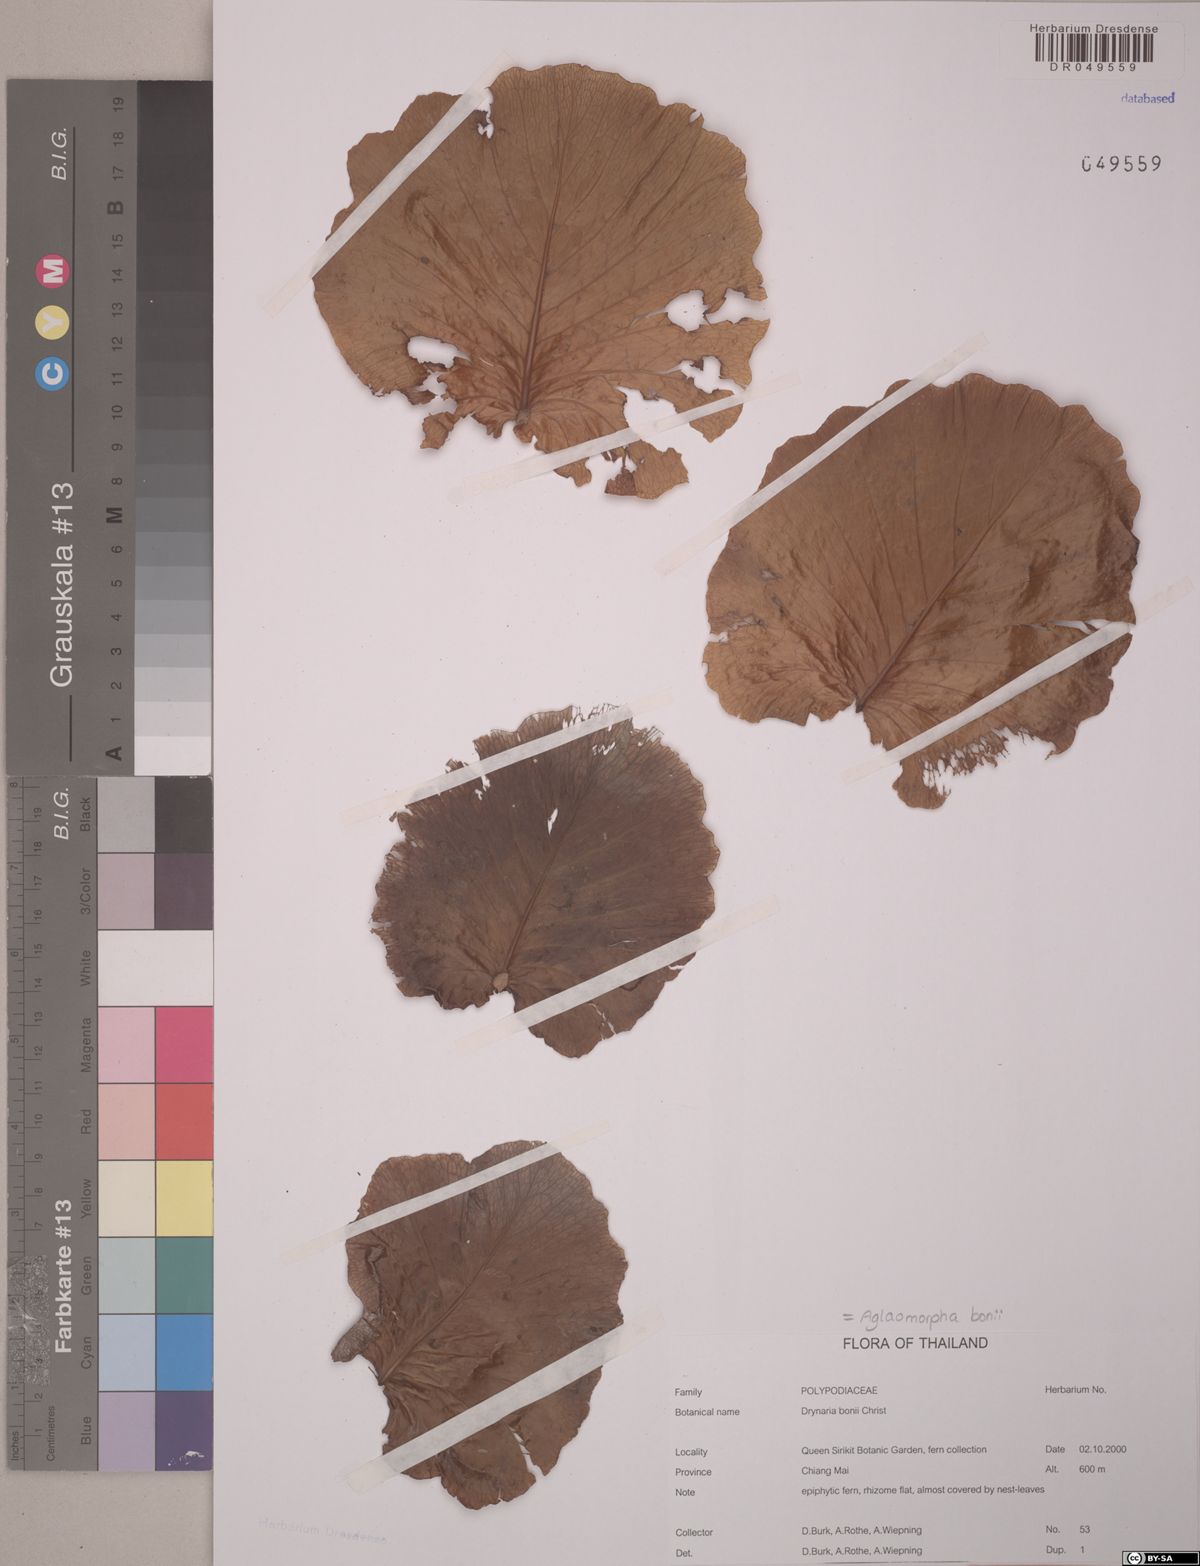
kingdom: Plantae
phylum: Tracheophyta
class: Polypodiopsida
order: Polypodiales
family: Polypodiaceae
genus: Drynaria
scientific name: Drynaria bonii
